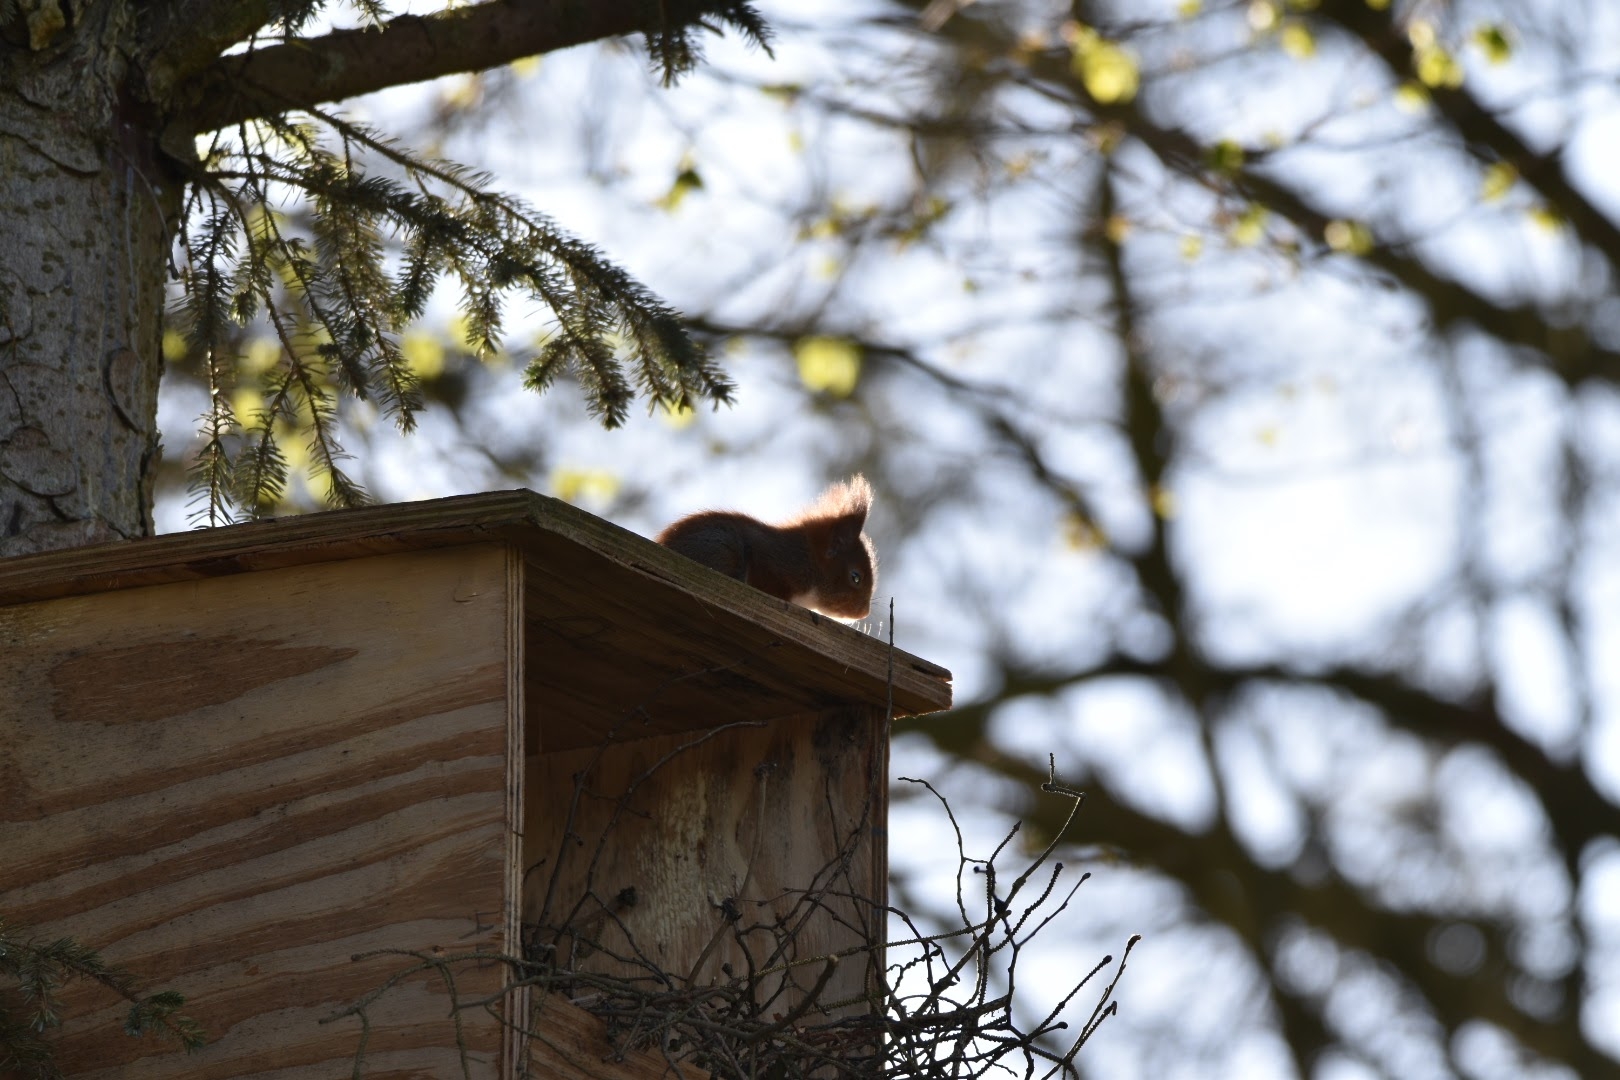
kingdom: Animalia
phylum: Chordata
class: Mammalia
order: Rodentia
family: Sciuridae
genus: Sciurus
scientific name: Sciurus vulgaris
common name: Egern
